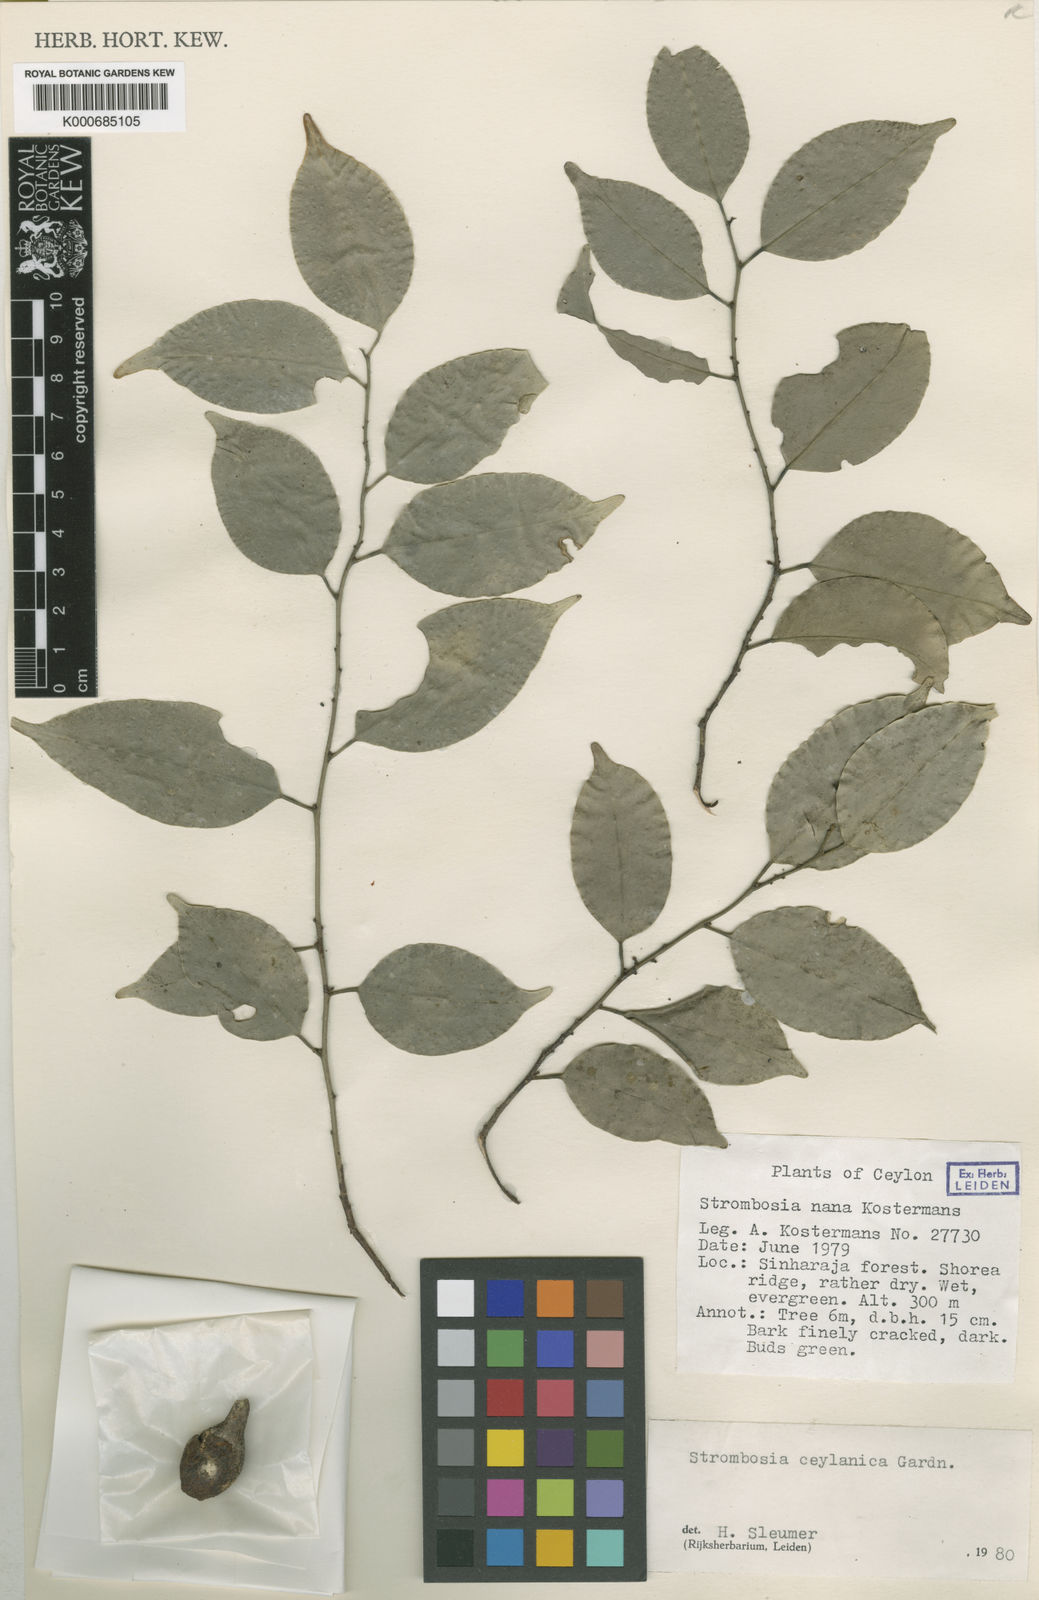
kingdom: Plantae
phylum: Tracheophyta
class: Magnoliopsida
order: Santalales
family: Strombosiaceae
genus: Strombosia
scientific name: Strombosia ceylanica
